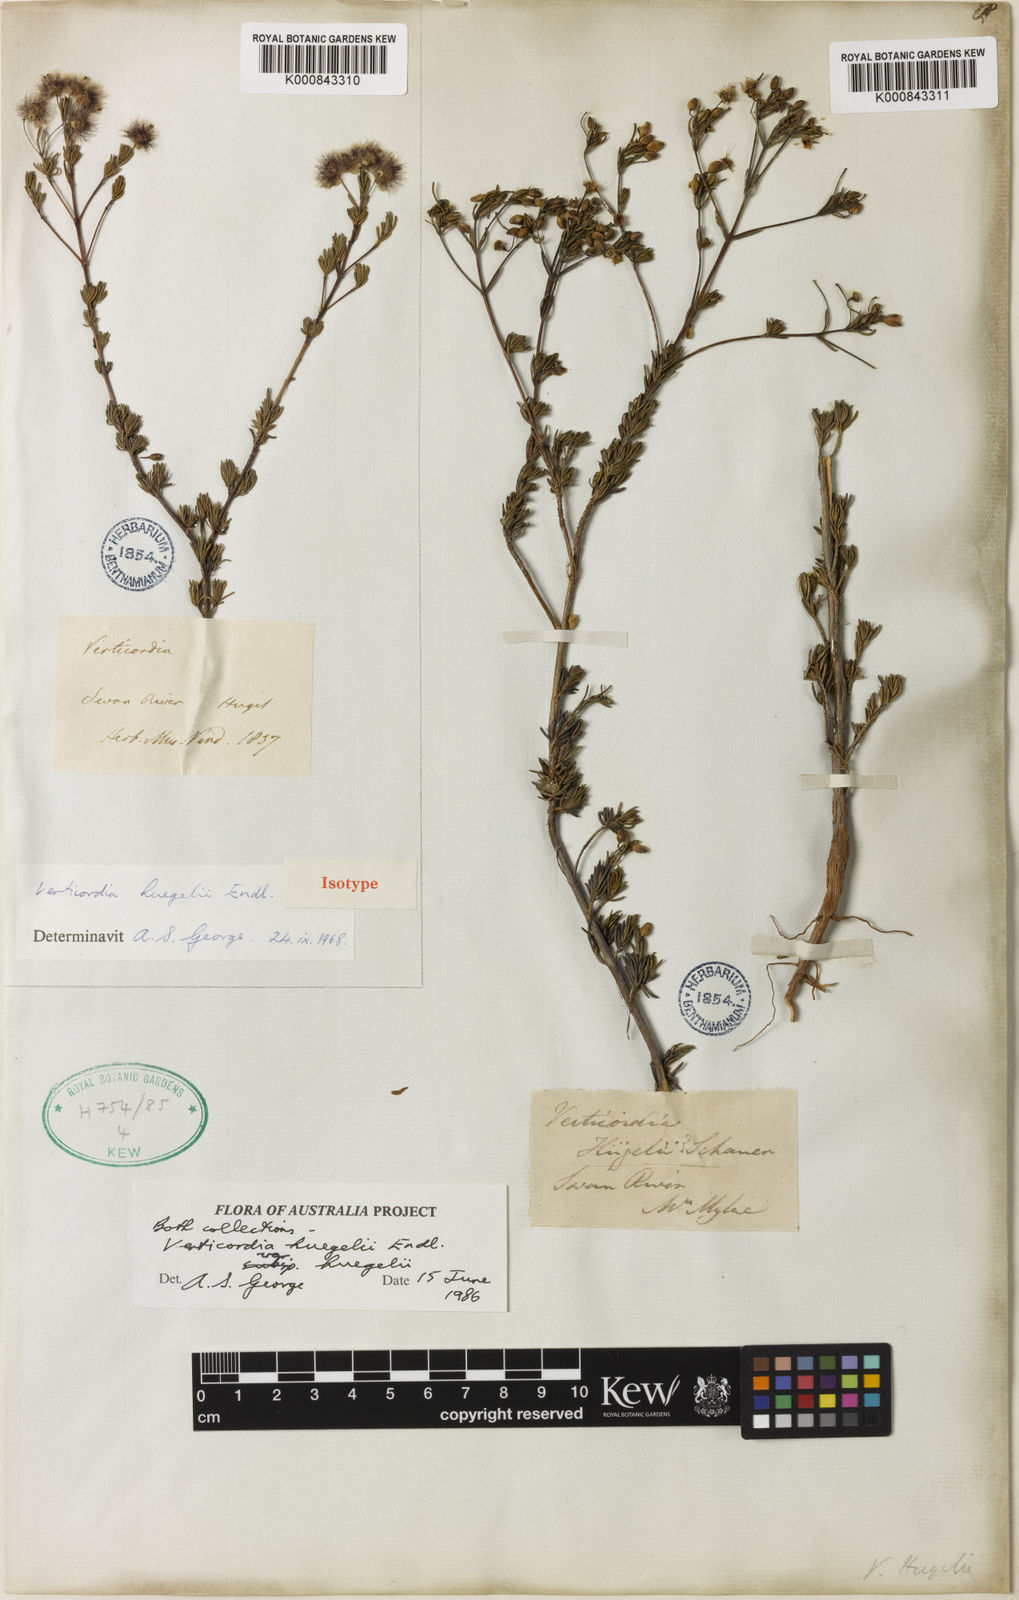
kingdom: Plantae
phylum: Tracheophyta
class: Magnoliopsida
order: Myrtales
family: Myrtaceae
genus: Verticordia
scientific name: Verticordia huegelii
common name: Variegate feather-flower
